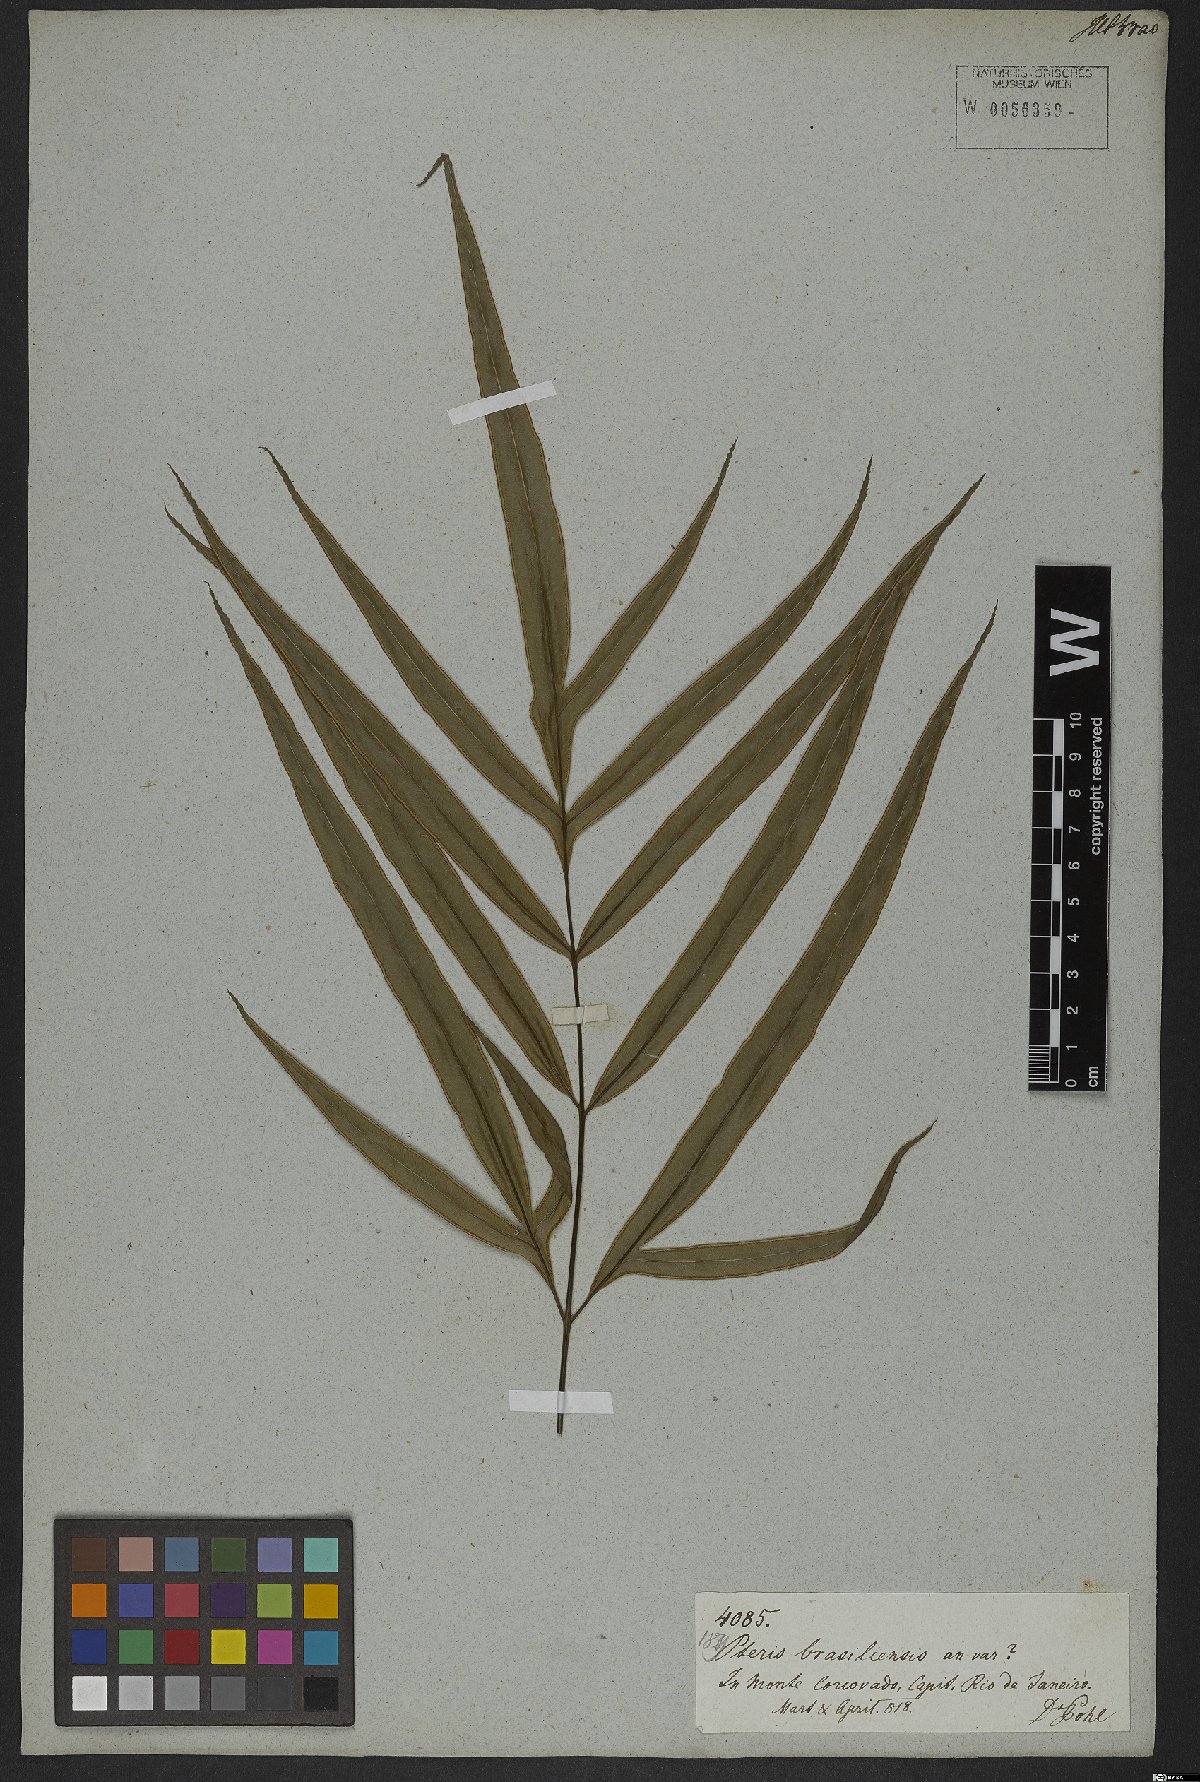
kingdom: Plantae
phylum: Tracheophyta
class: Polypodiopsida
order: Polypodiales
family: Pteridaceae
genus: Pteris
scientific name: Pteris denticulata
